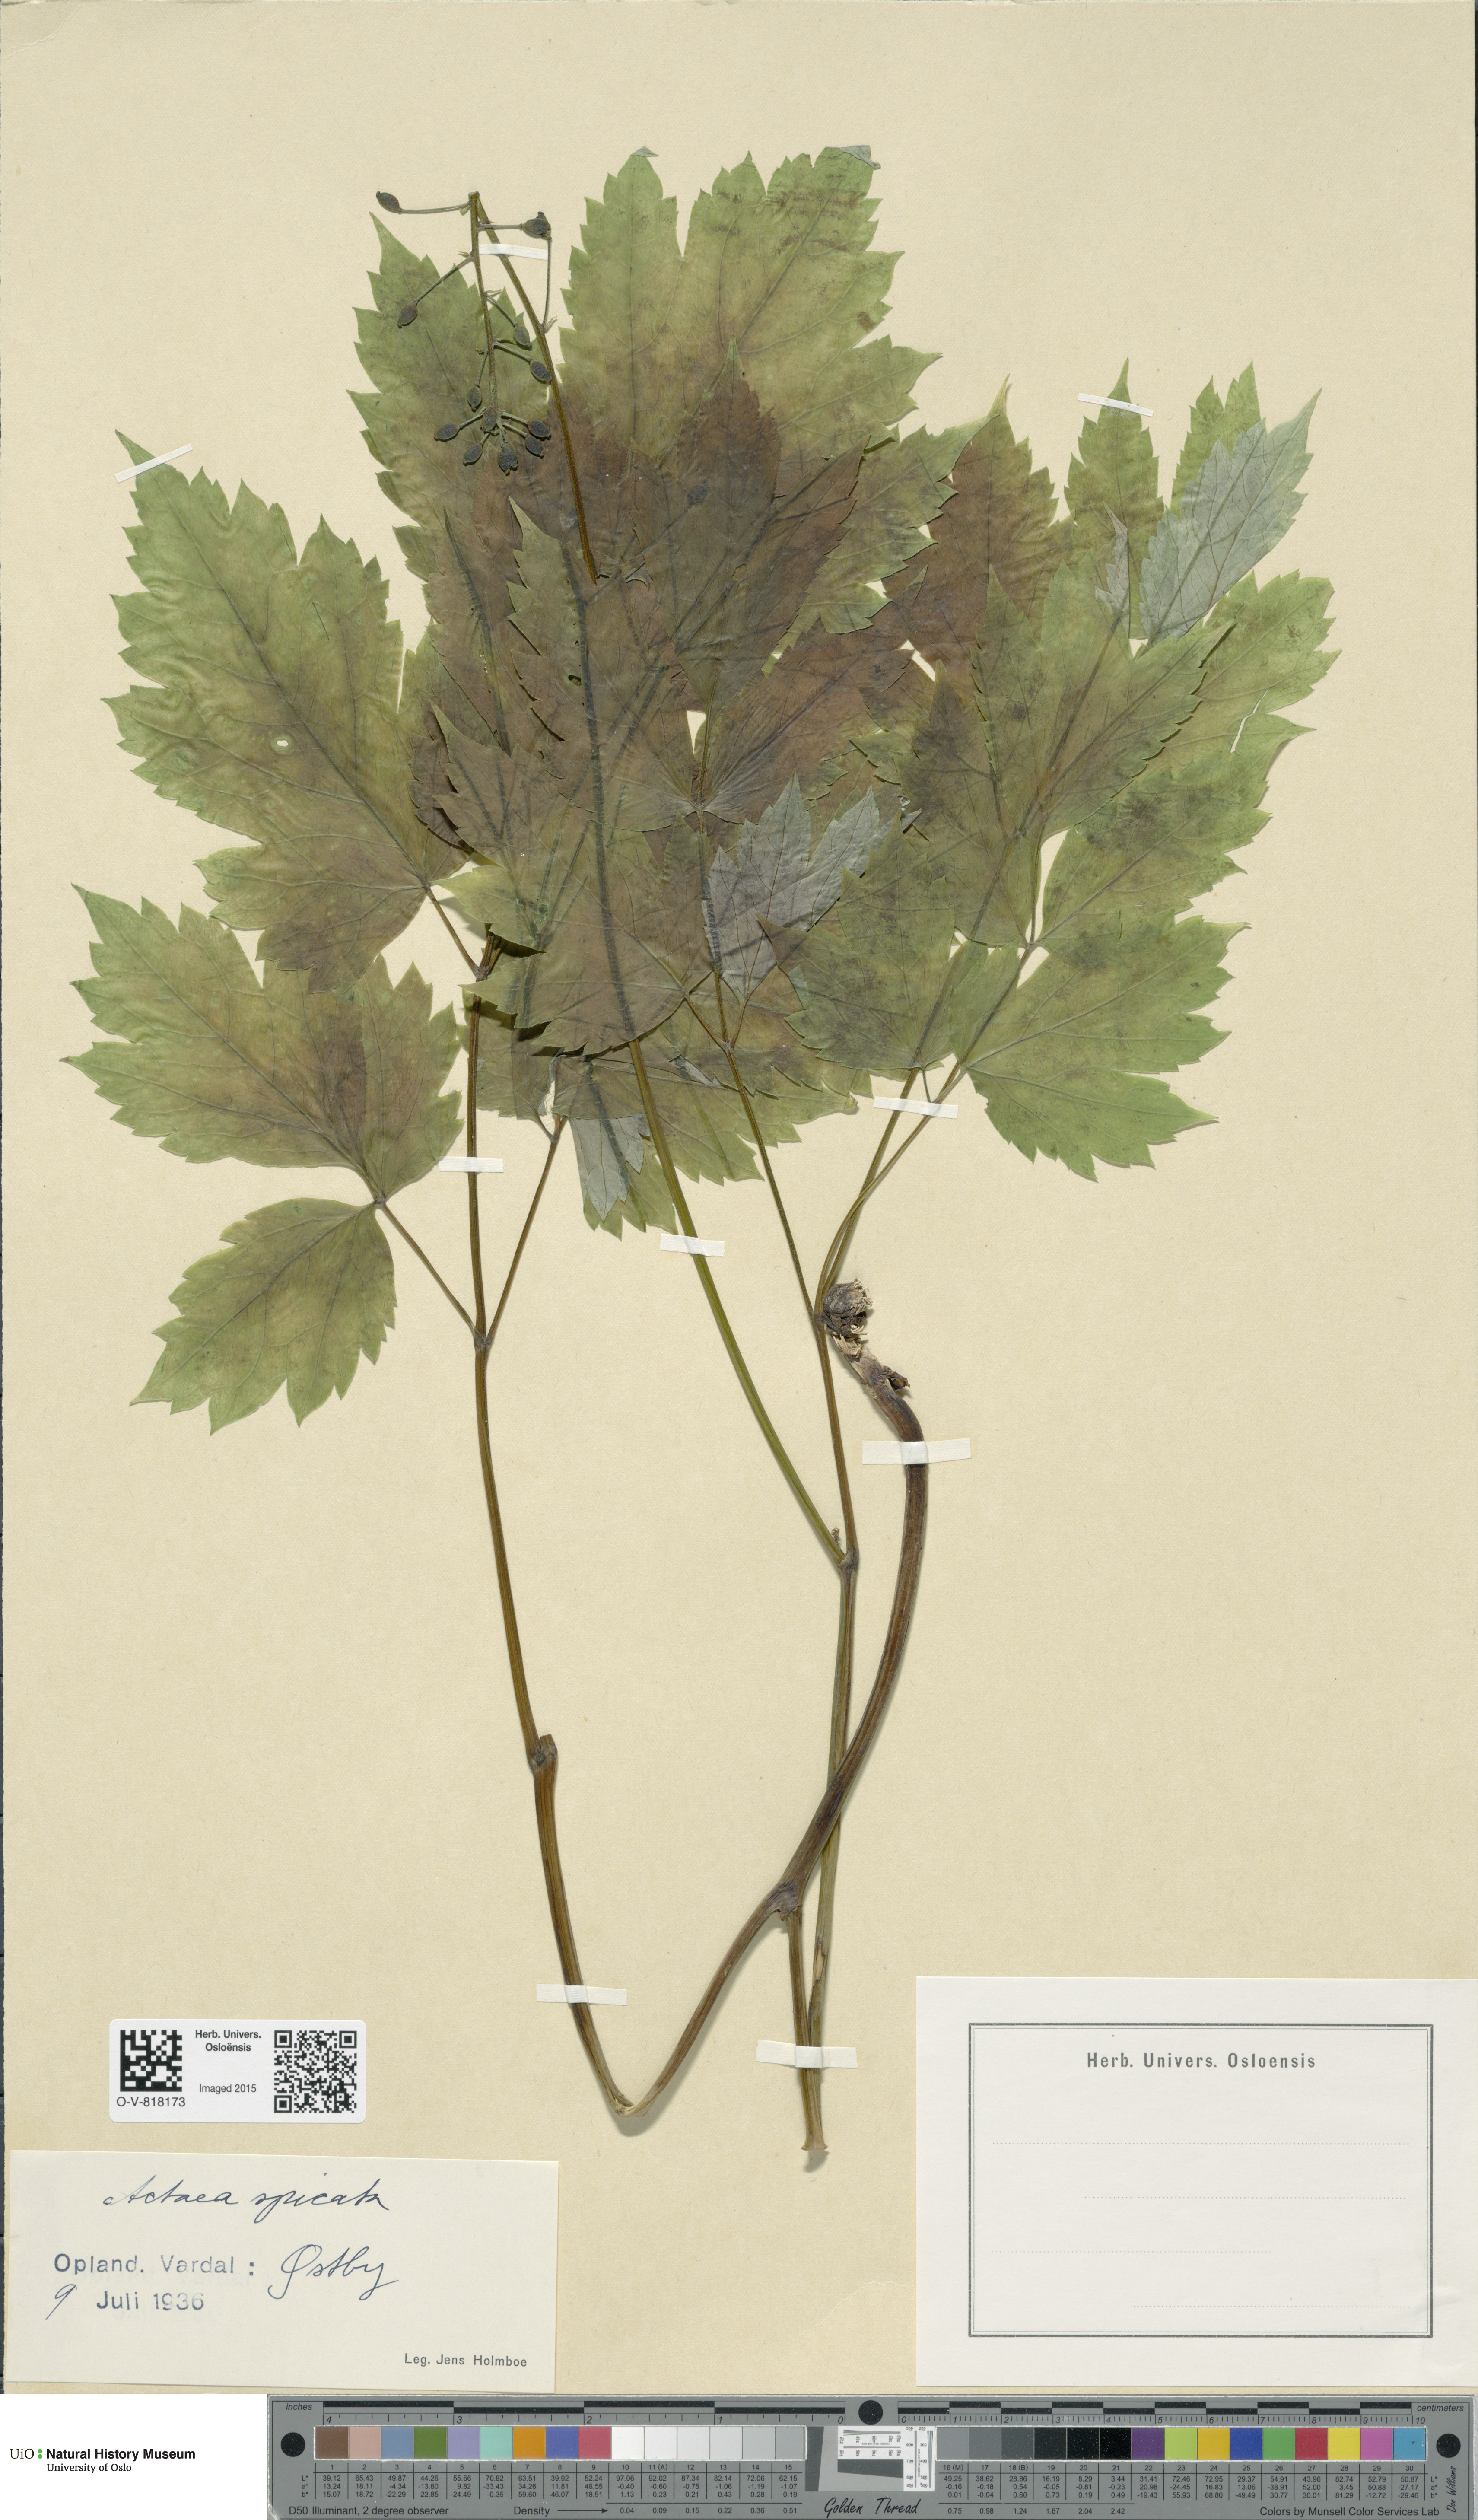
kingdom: Plantae
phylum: Tracheophyta
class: Magnoliopsida
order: Ranunculales
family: Ranunculaceae
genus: Actaea
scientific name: Actaea spicata
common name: Baneberry
